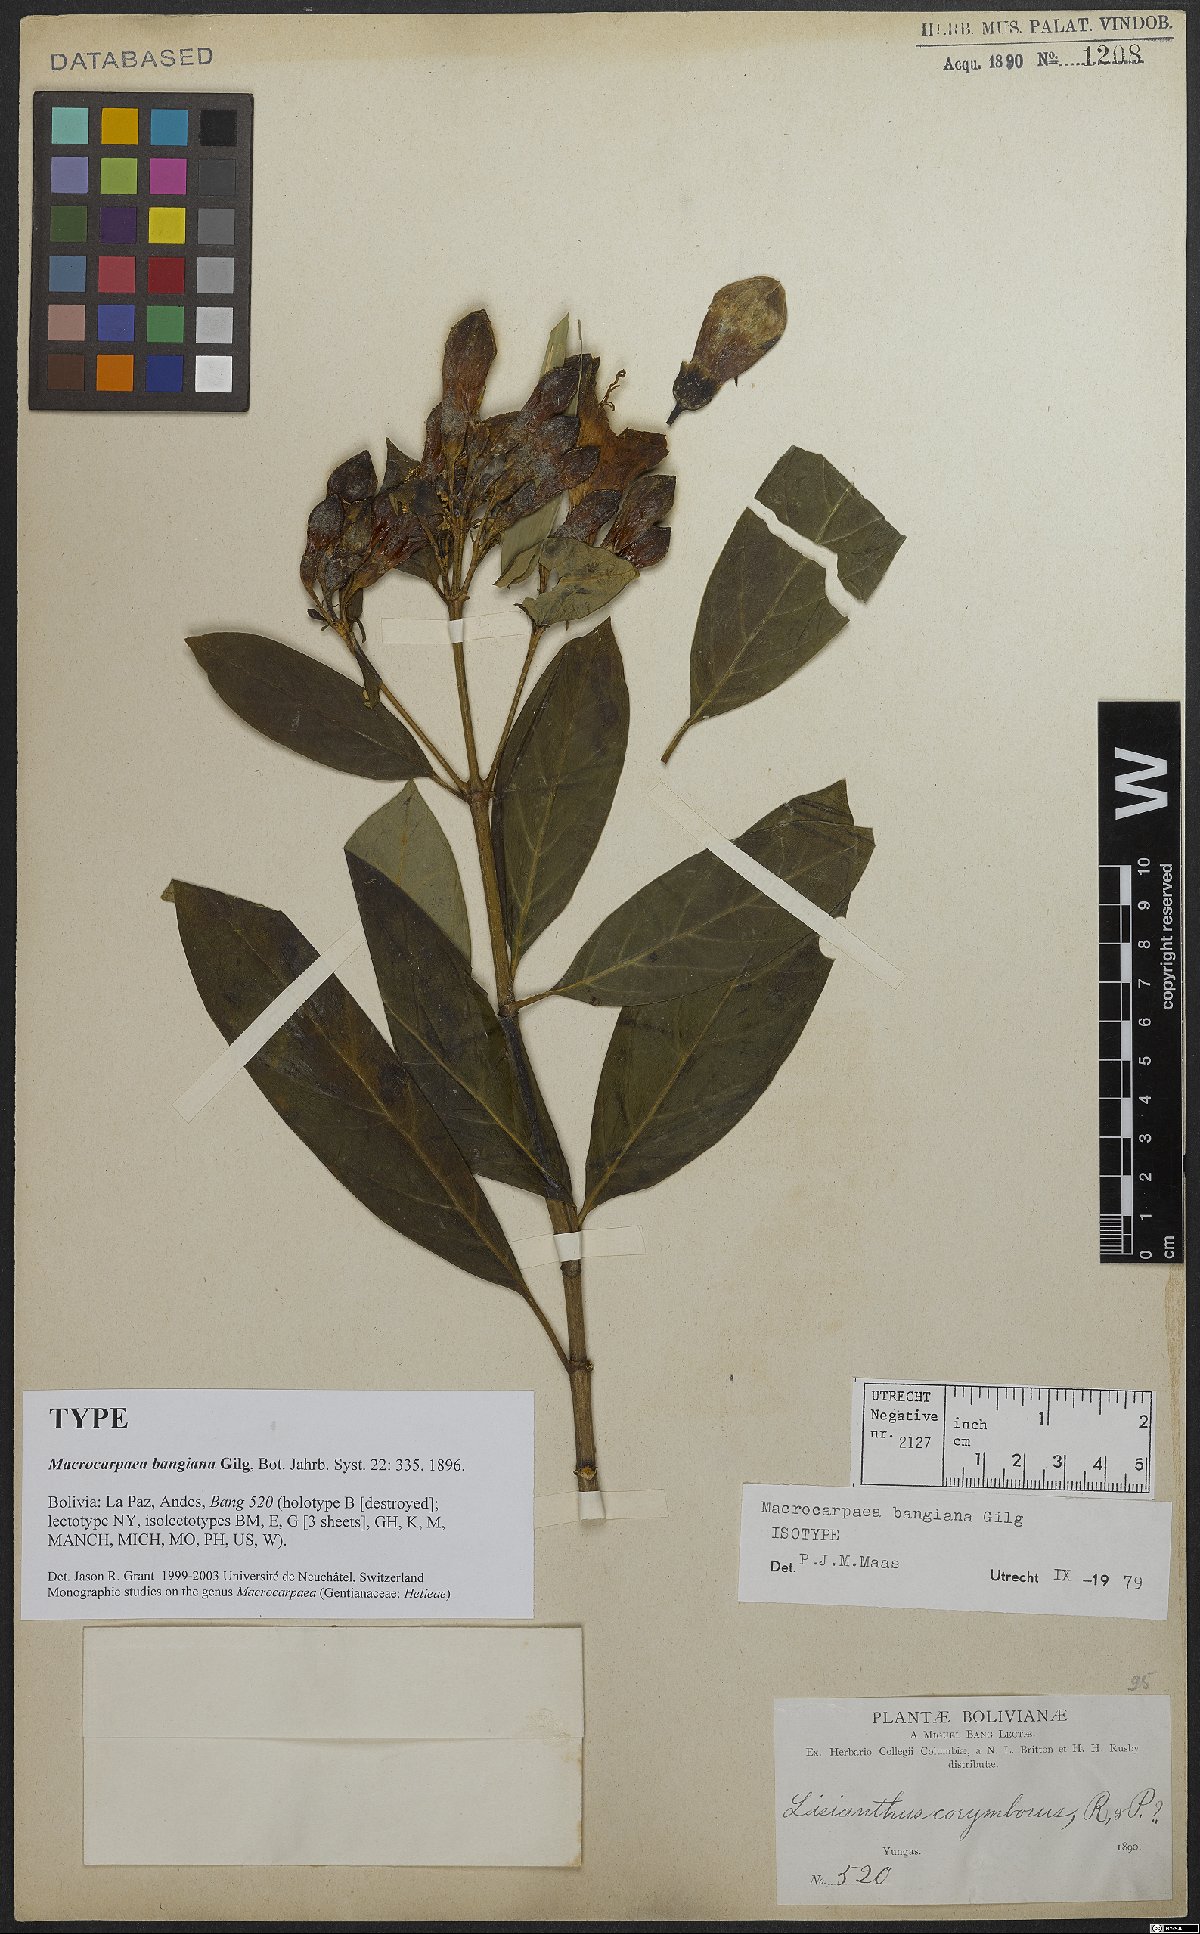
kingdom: Plantae
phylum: Tracheophyta
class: Magnoliopsida
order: Gentianales
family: Gentianaceae
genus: Macrocarpaea
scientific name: Macrocarpaea bangiana
